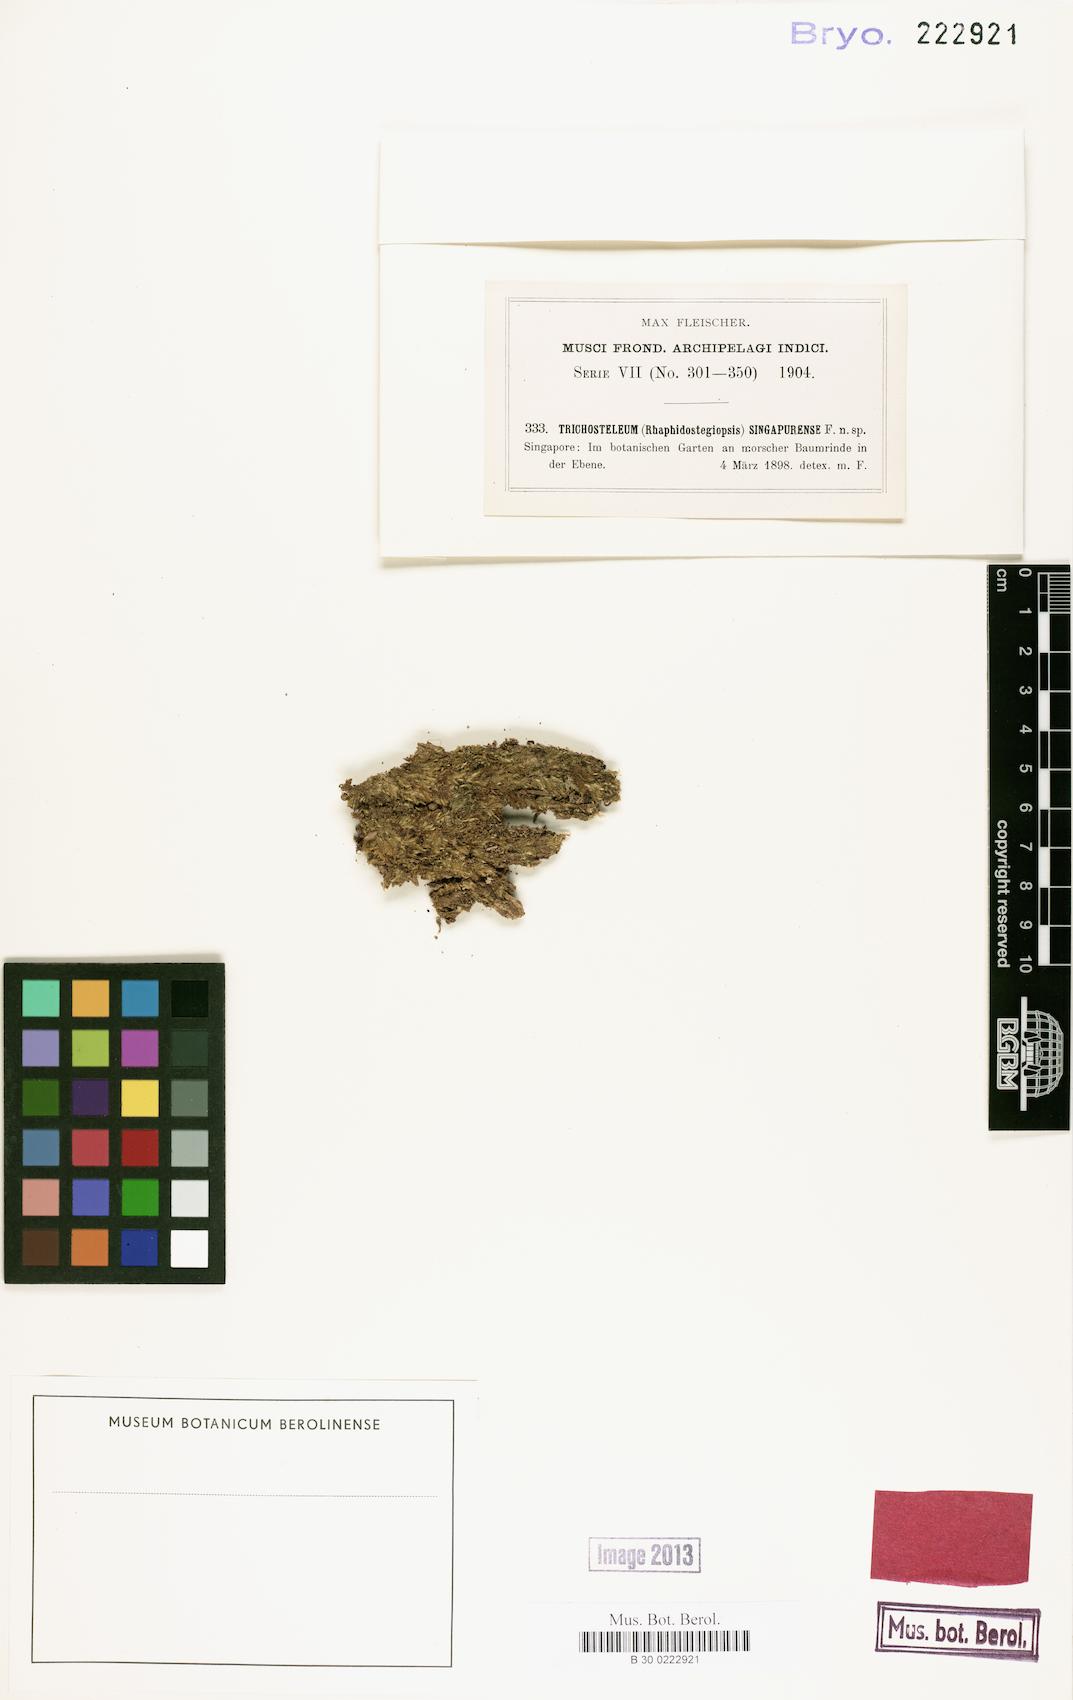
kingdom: Plantae
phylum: Bryophyta
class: Bryopsida
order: Hypnales
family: Sematophyllaceae
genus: Trichosteleum
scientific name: Trichosteleum stigmosum
